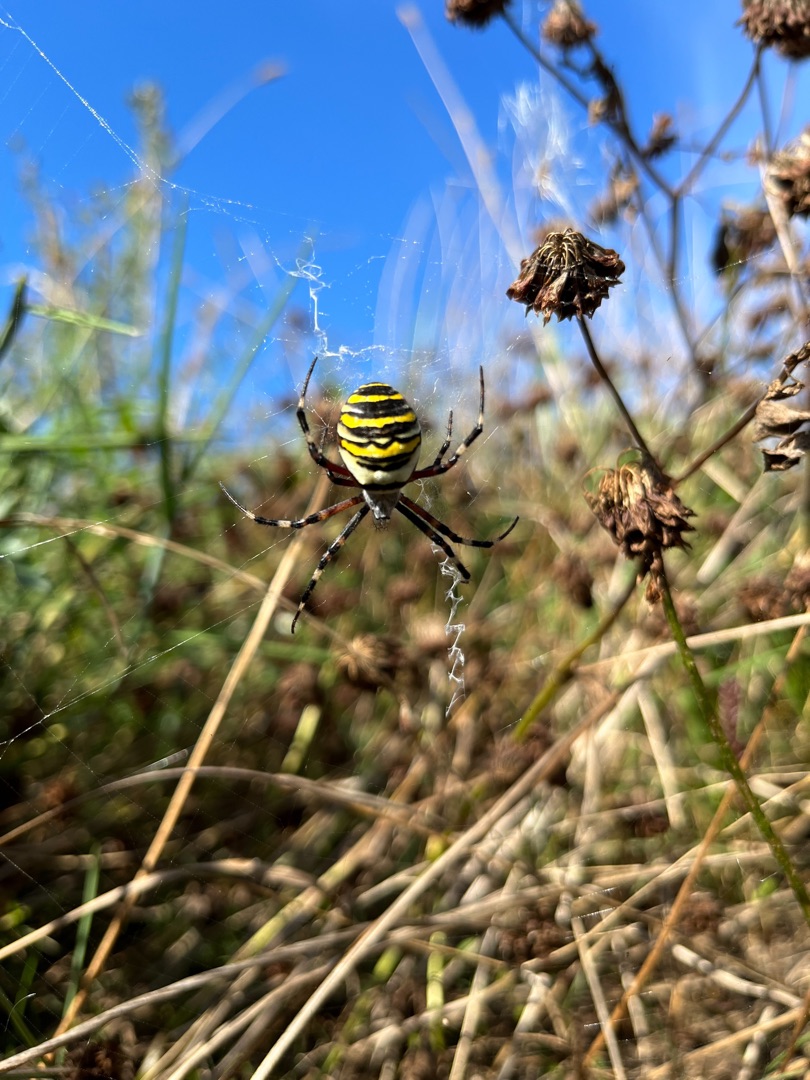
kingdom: Animalia
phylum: Arthropoda
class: Arachnida
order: Araneae
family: Araneidae
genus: Argiope
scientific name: Argiope bruennichi
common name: Hvepseedderkop
